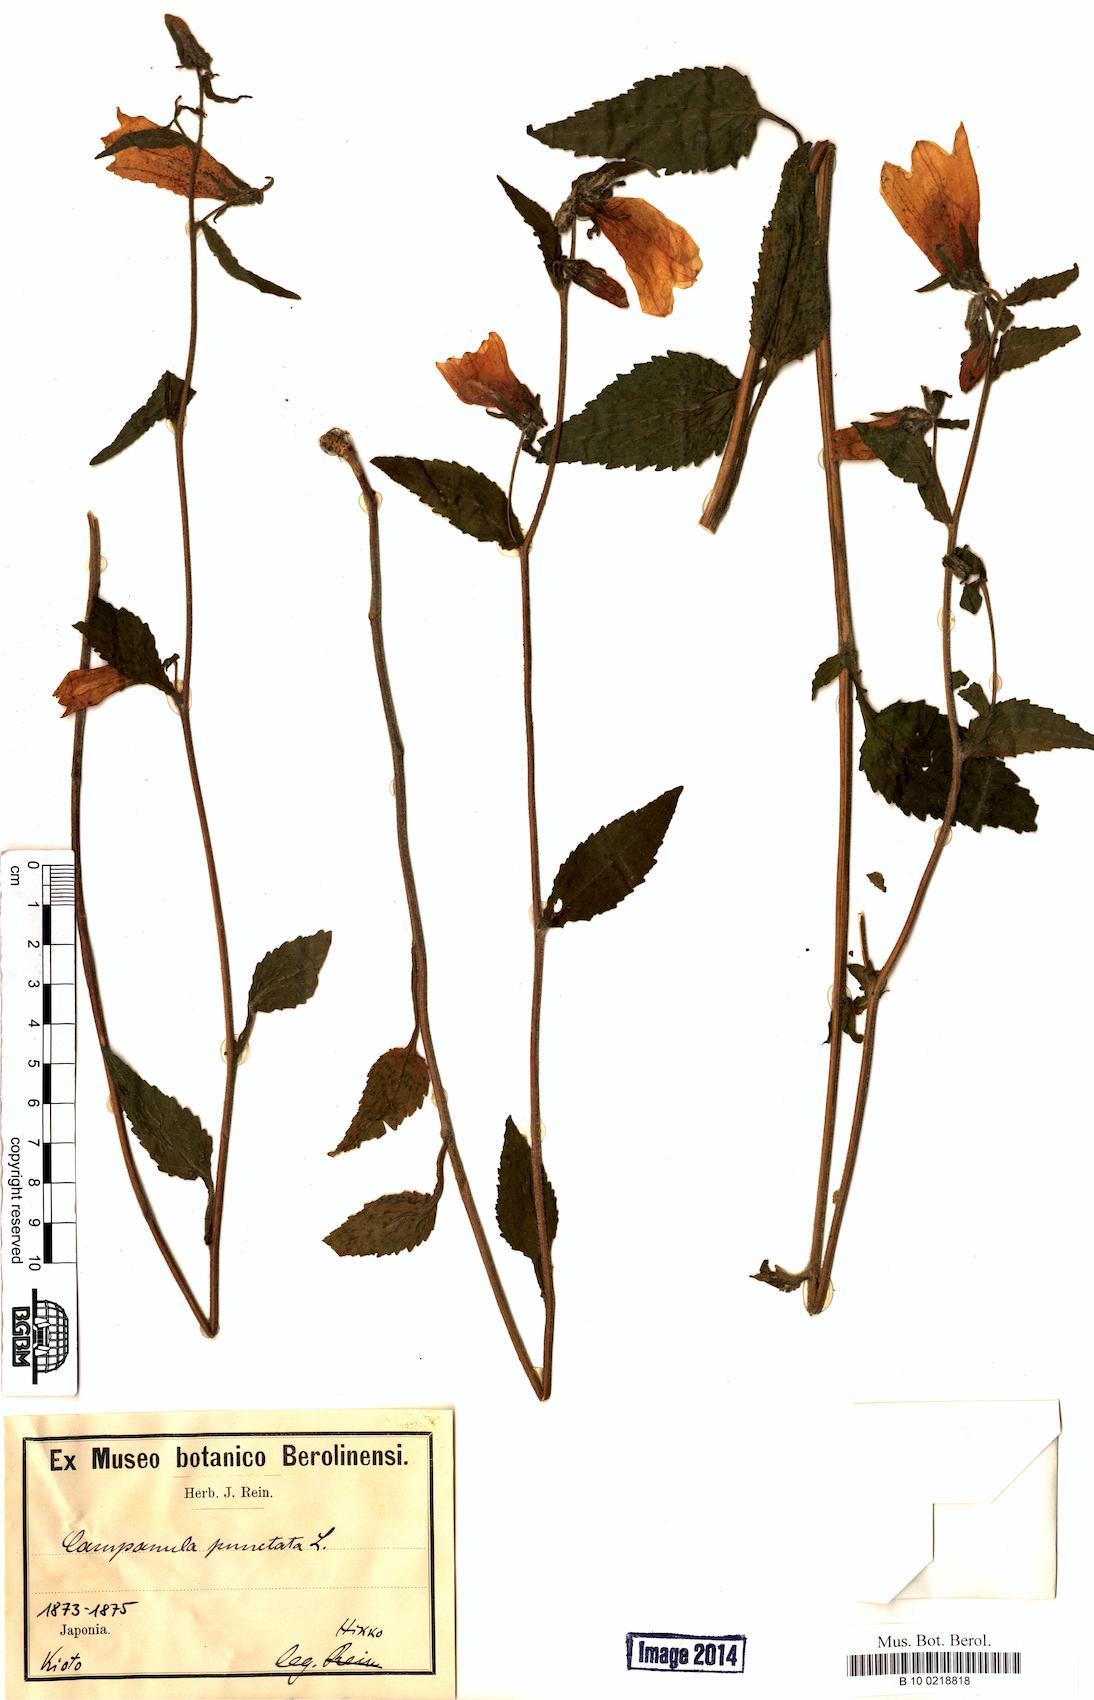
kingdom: Plantae
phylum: Tracheophyta
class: Magnoliopsida
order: Asterales
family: Campanulaceae
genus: Campanula
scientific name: Campanula punctata
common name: Spotted bellflower
